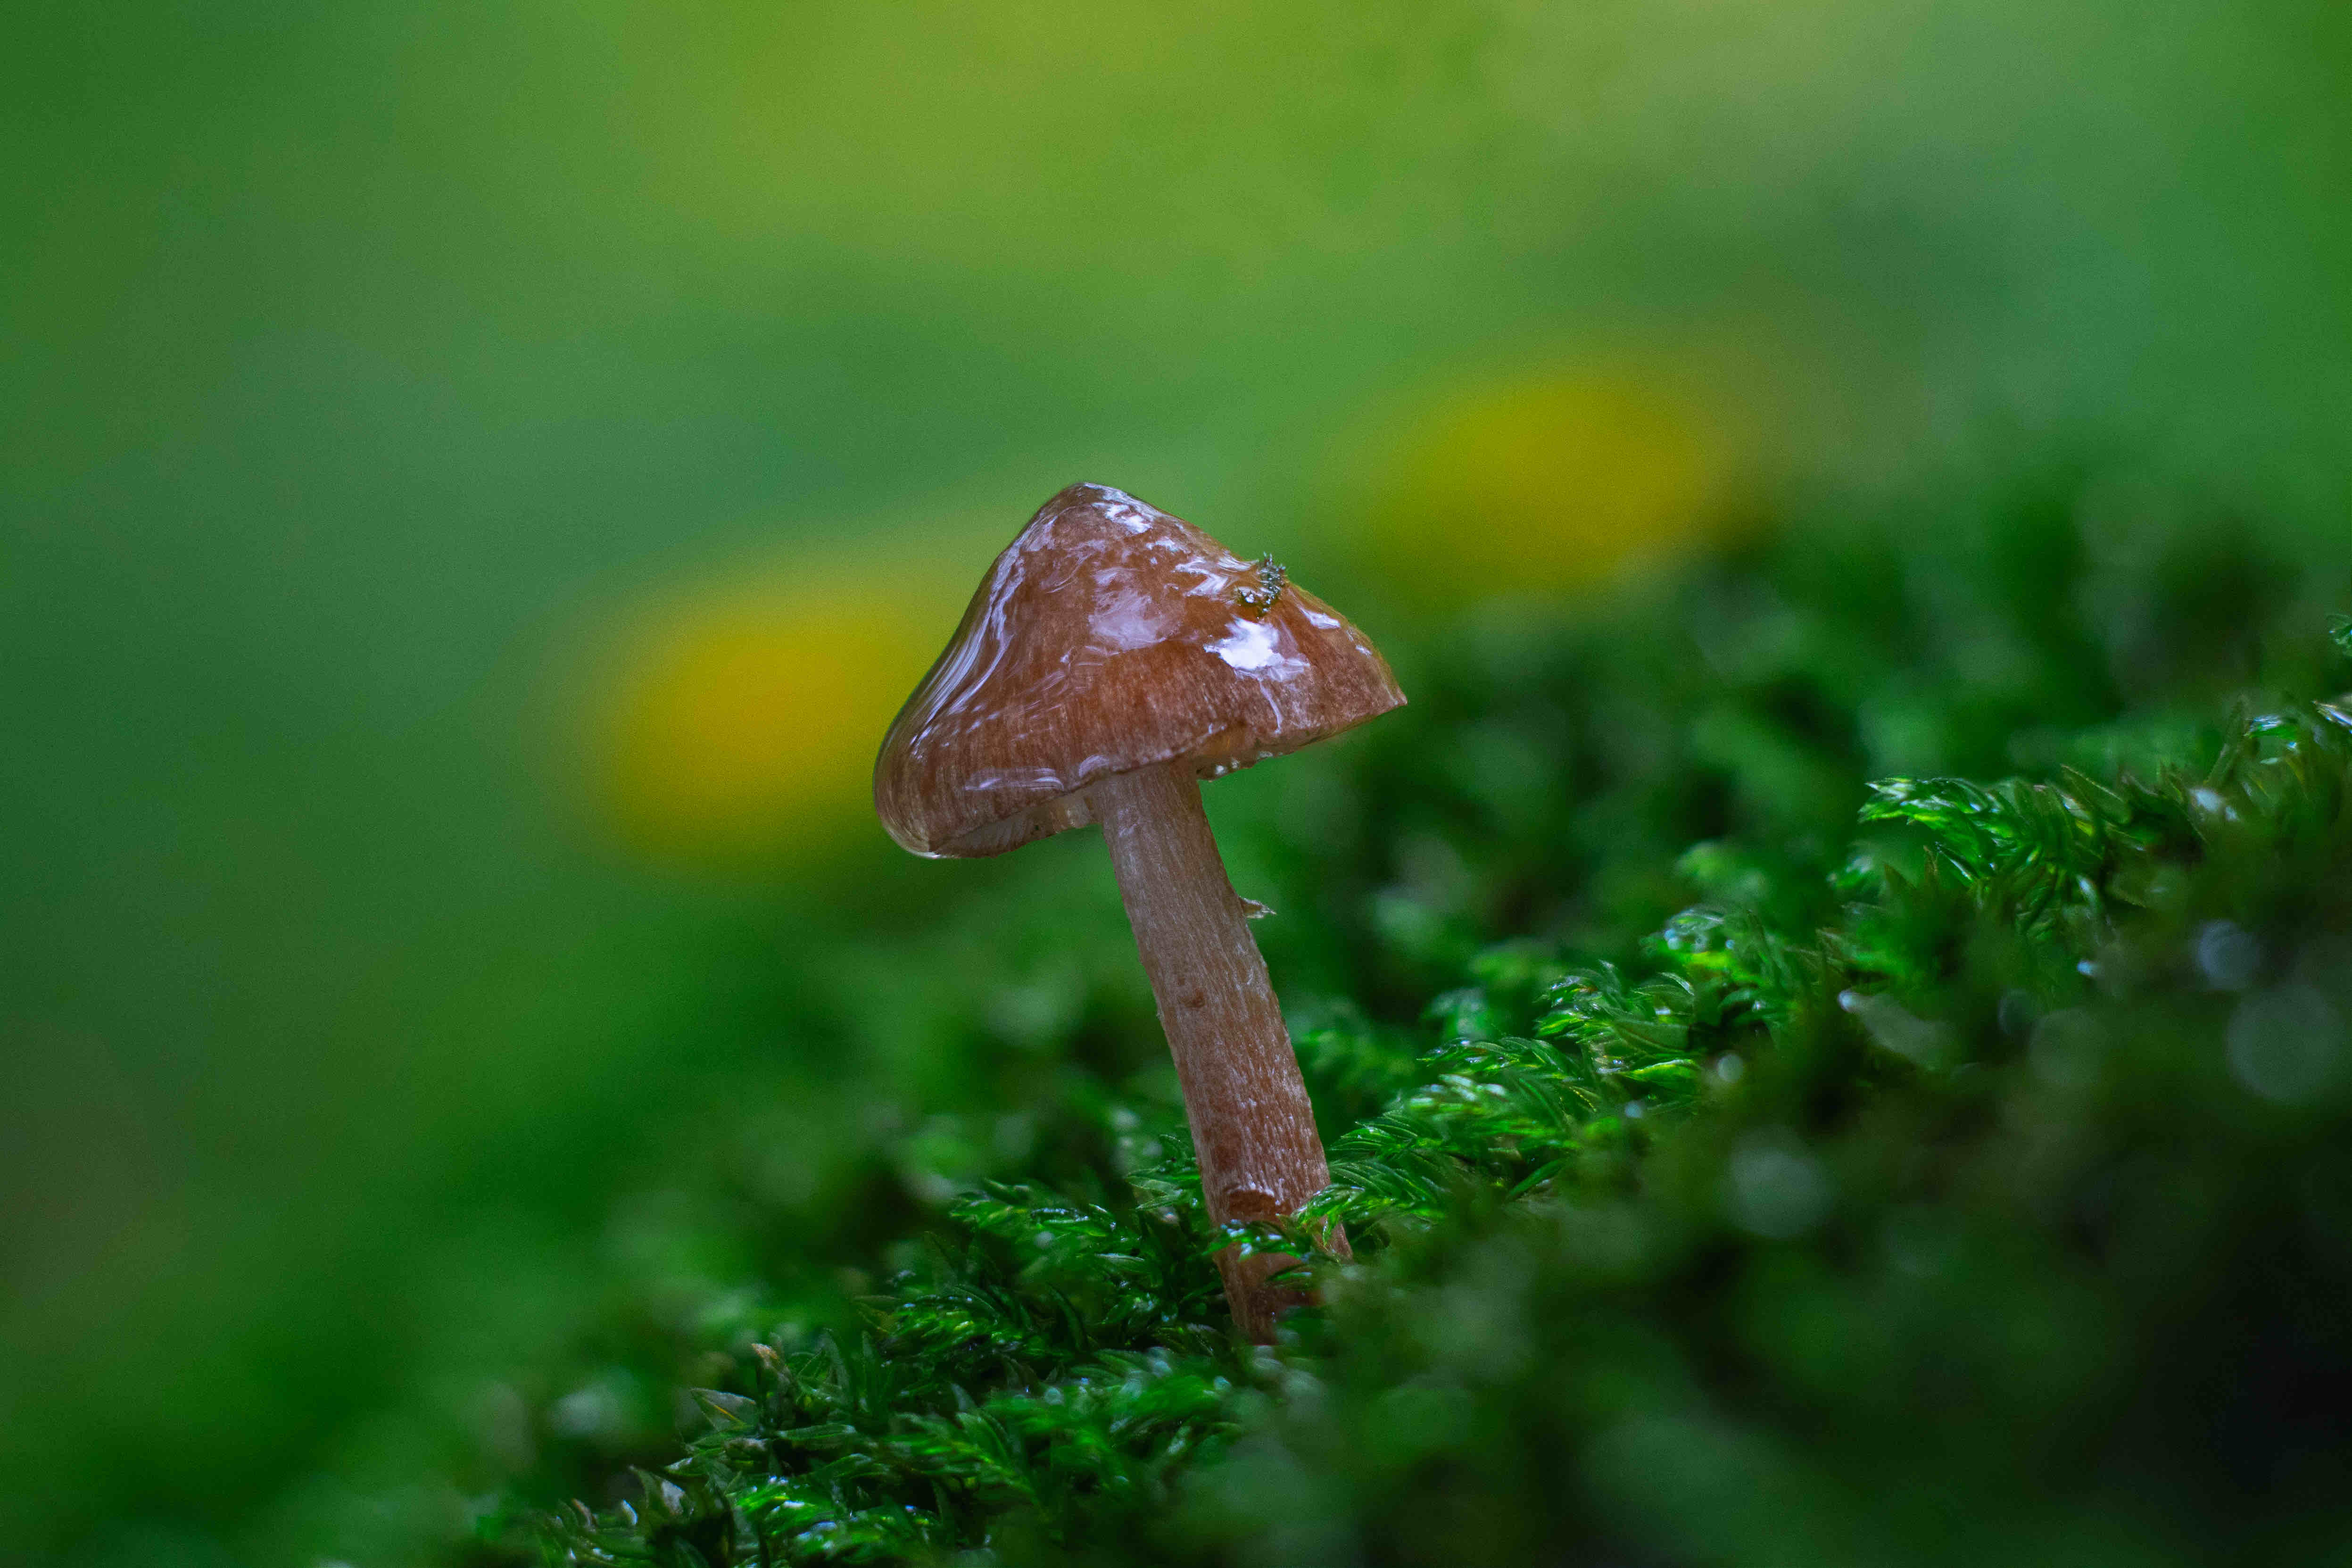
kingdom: Fungi
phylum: Basidiomycota
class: Agaricomycetes
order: Agaricales
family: Inocybaceae
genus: Inocybe
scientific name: Inocybe
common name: trævlhat
